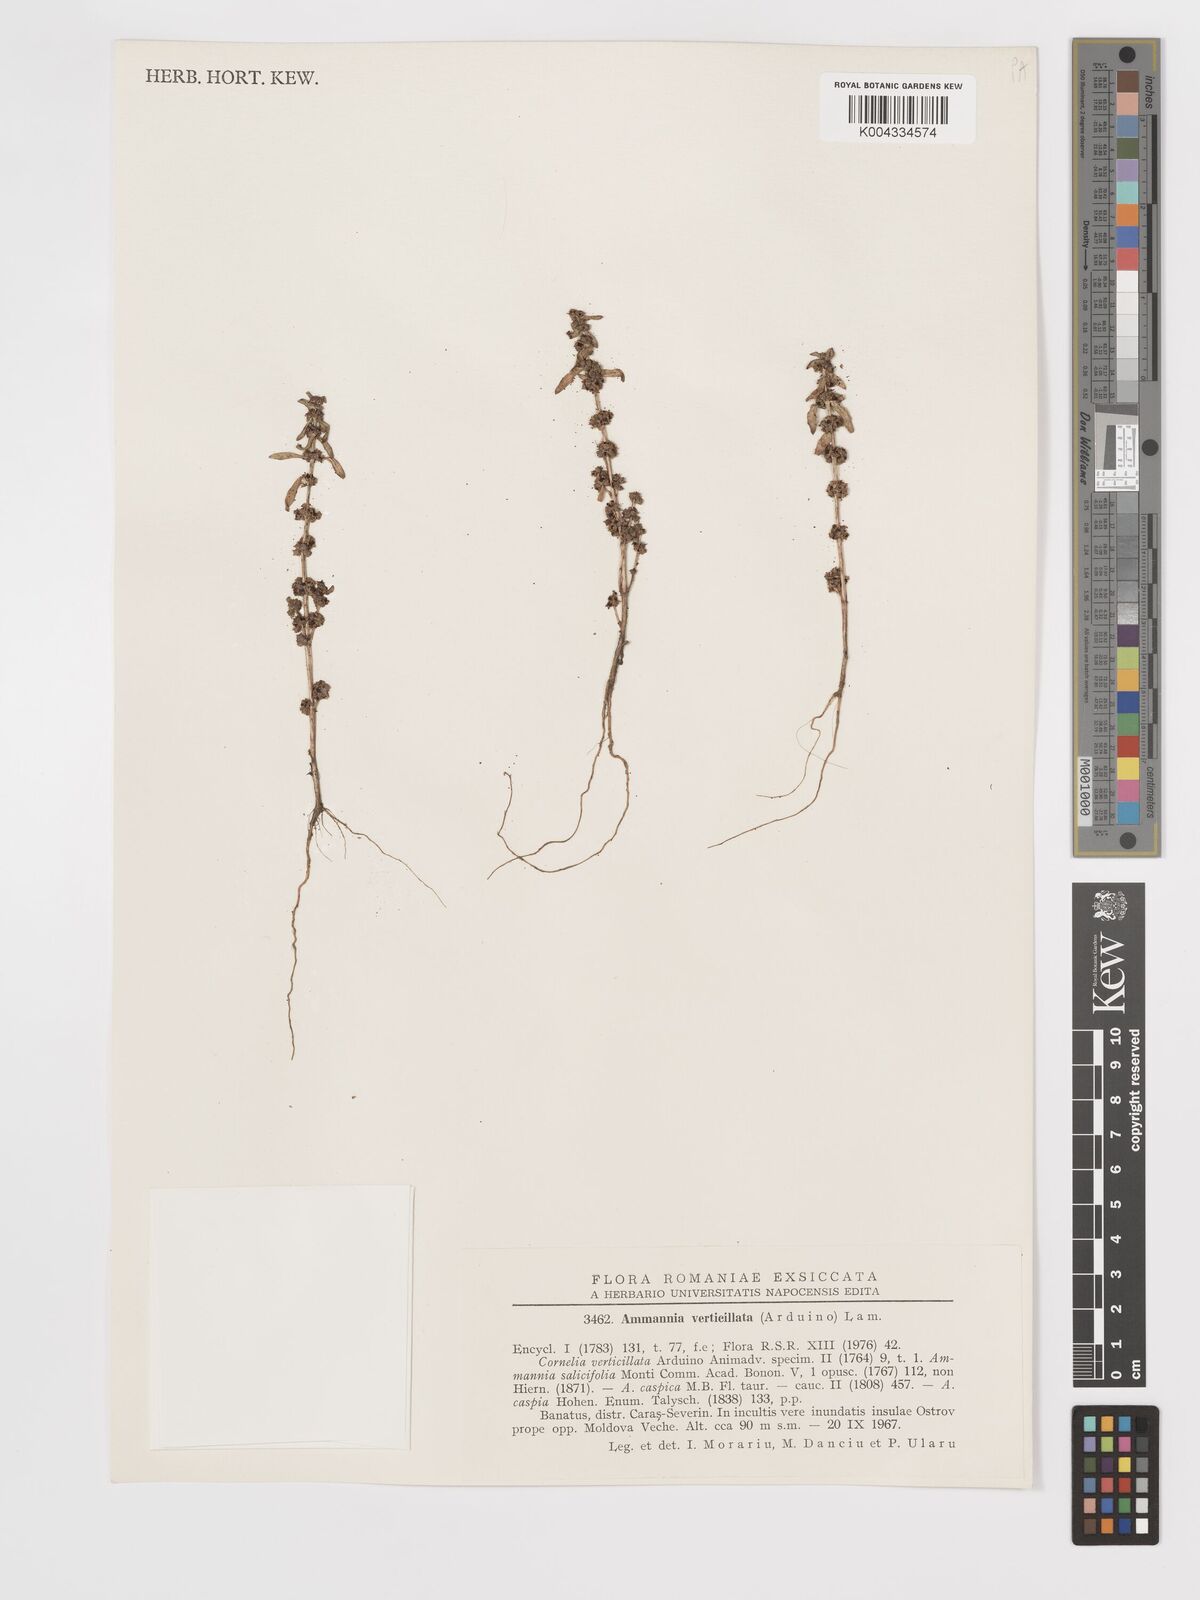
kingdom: Plantae
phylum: Tracheophyta
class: Magnoliopsida
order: Myrtales
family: Lythraceae
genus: Ammannia
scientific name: Ammannia baccifera
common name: Blistering ammania
